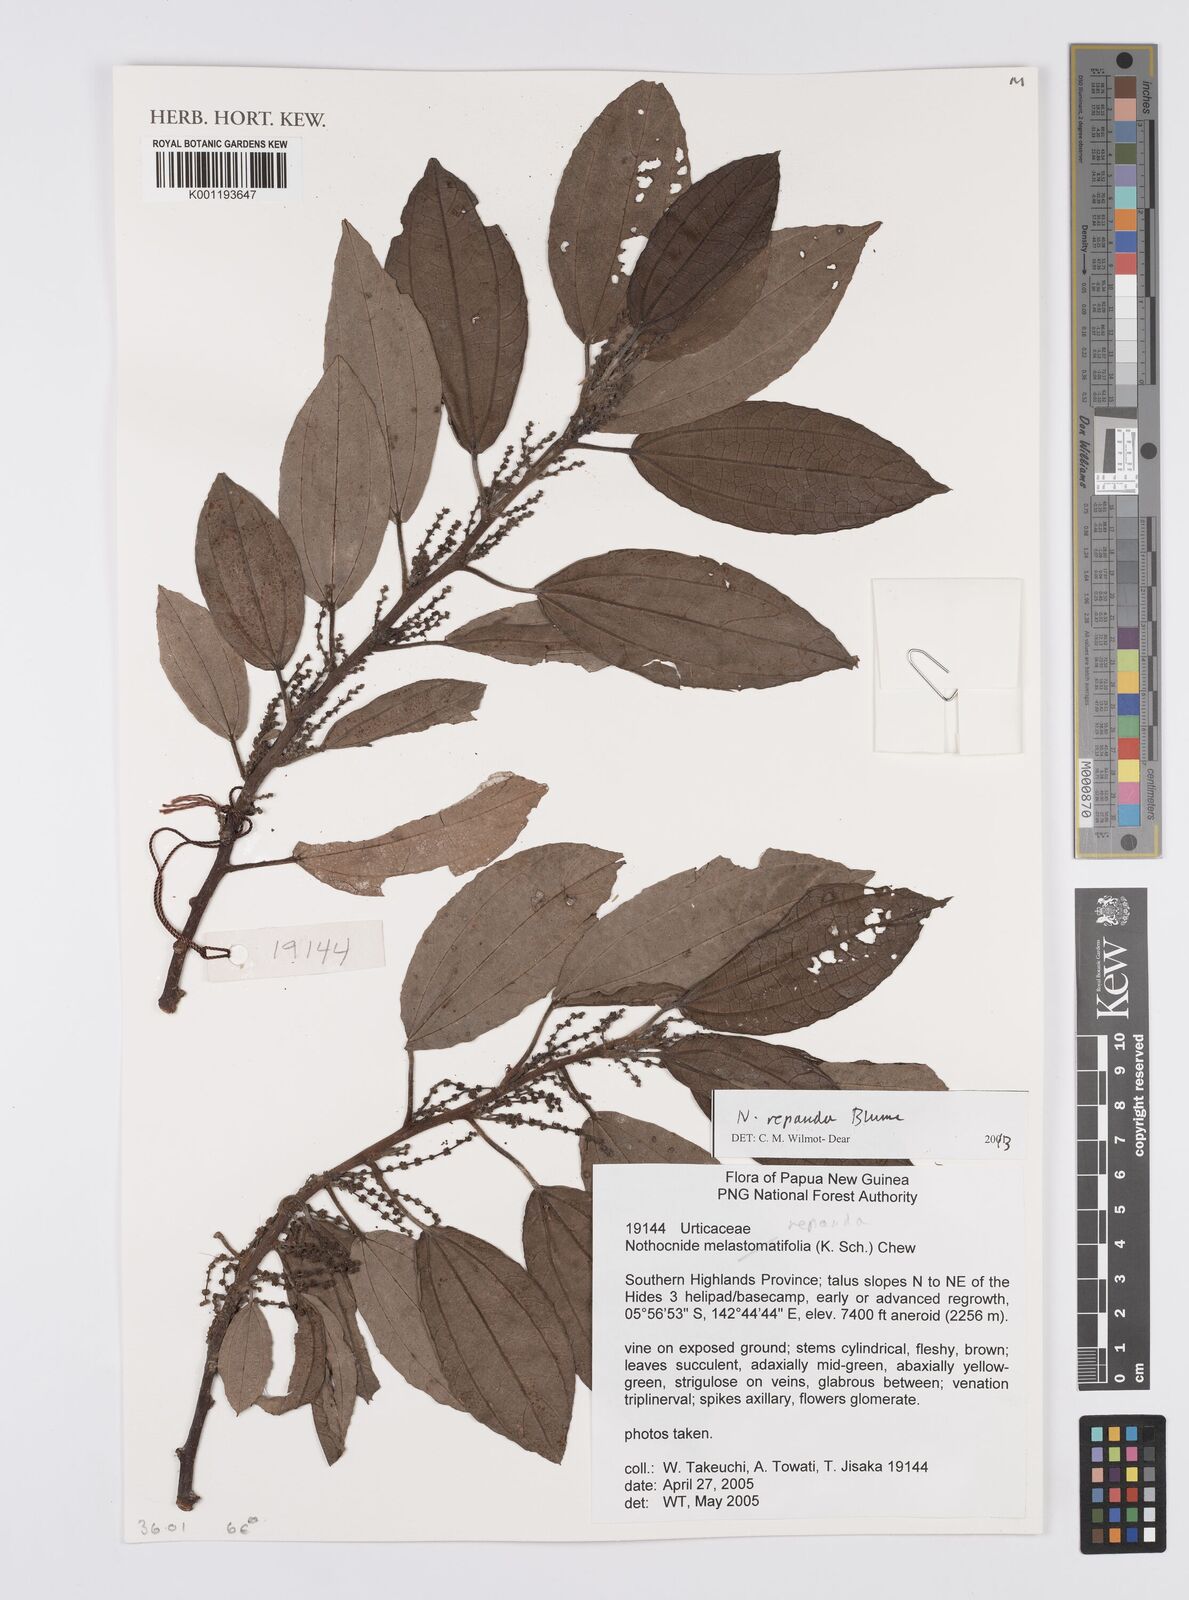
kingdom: Plantae
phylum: Tracheophyta
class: Magnoliopsida
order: Rosales
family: Urticaceae
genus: Nothocnide
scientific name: Nothocnide repanda
